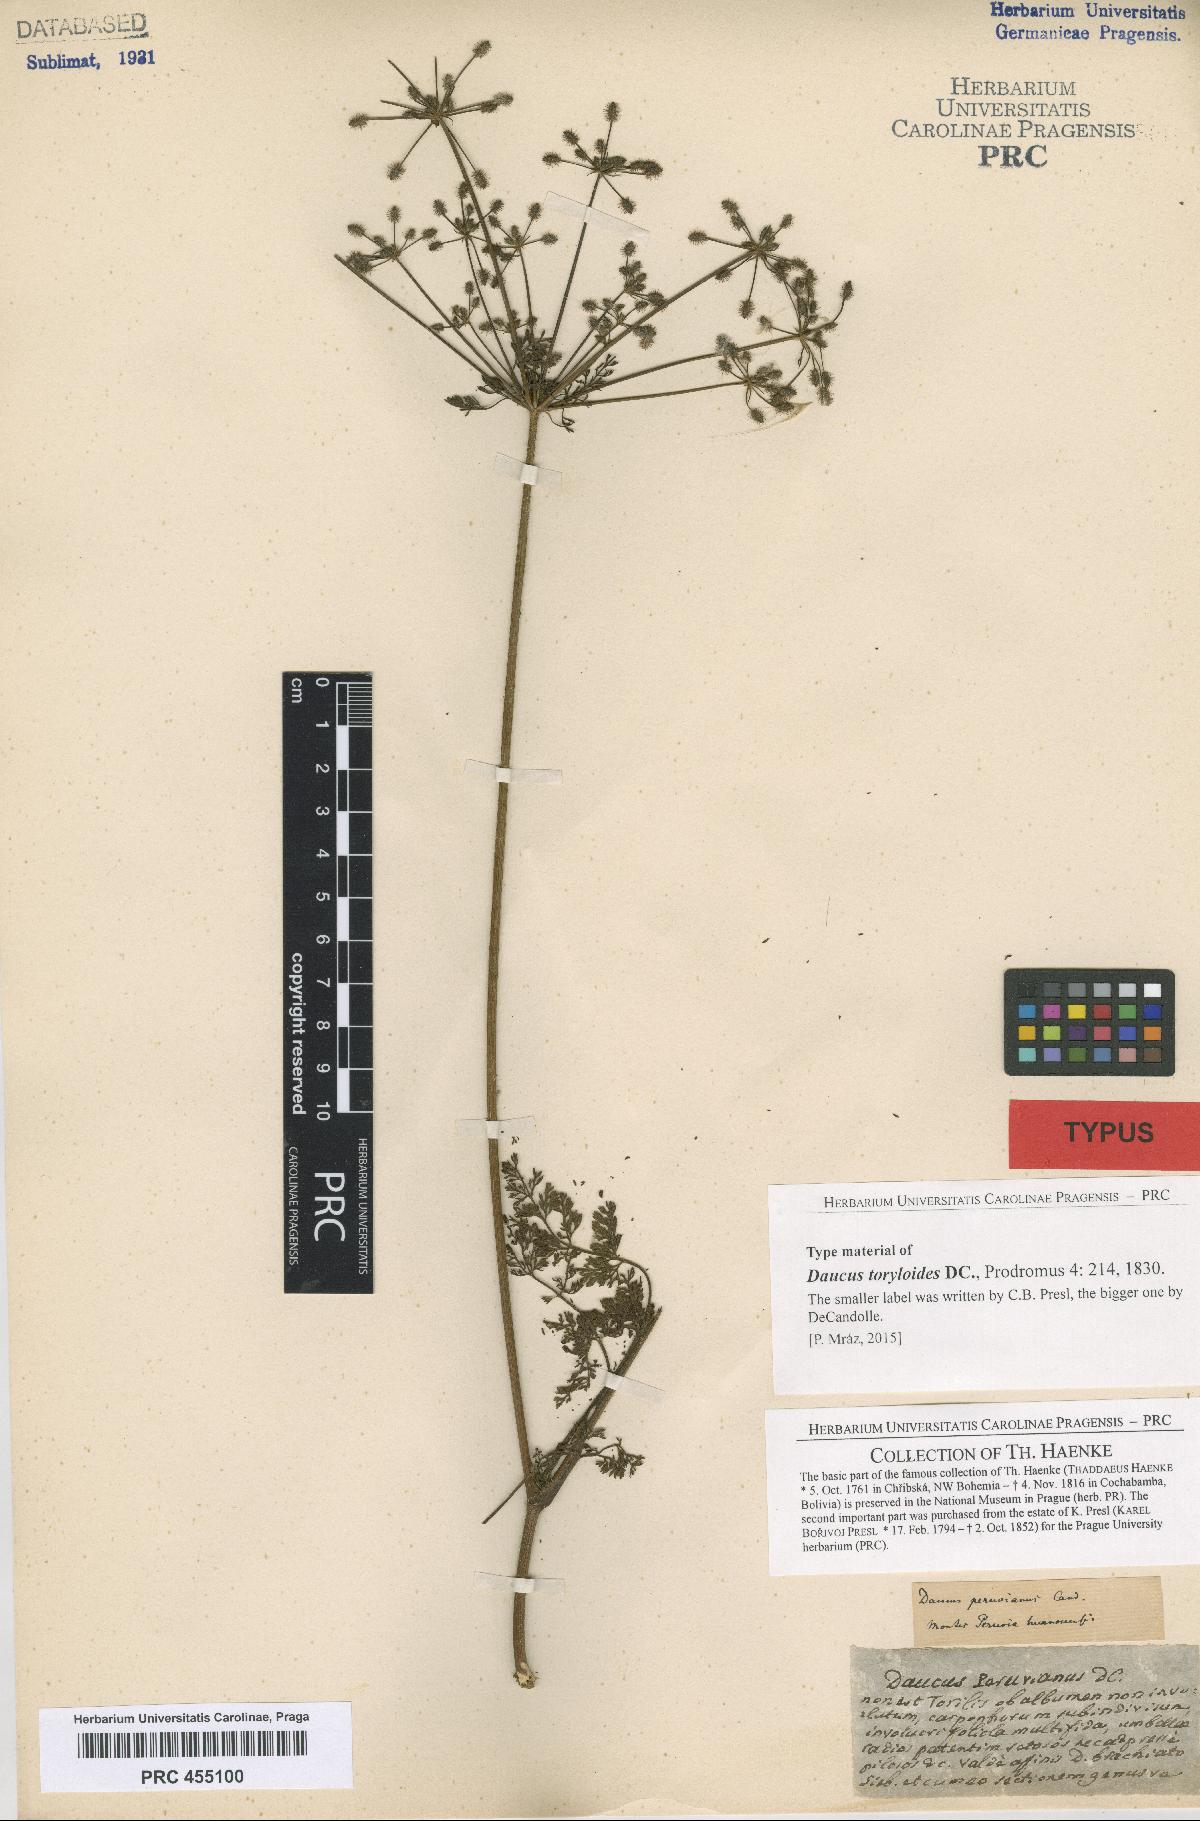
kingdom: Plantae
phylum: Tracheophyta
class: Magnoliopsida
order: Apiales
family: Apiaceae
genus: Daucus
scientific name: Daucus
